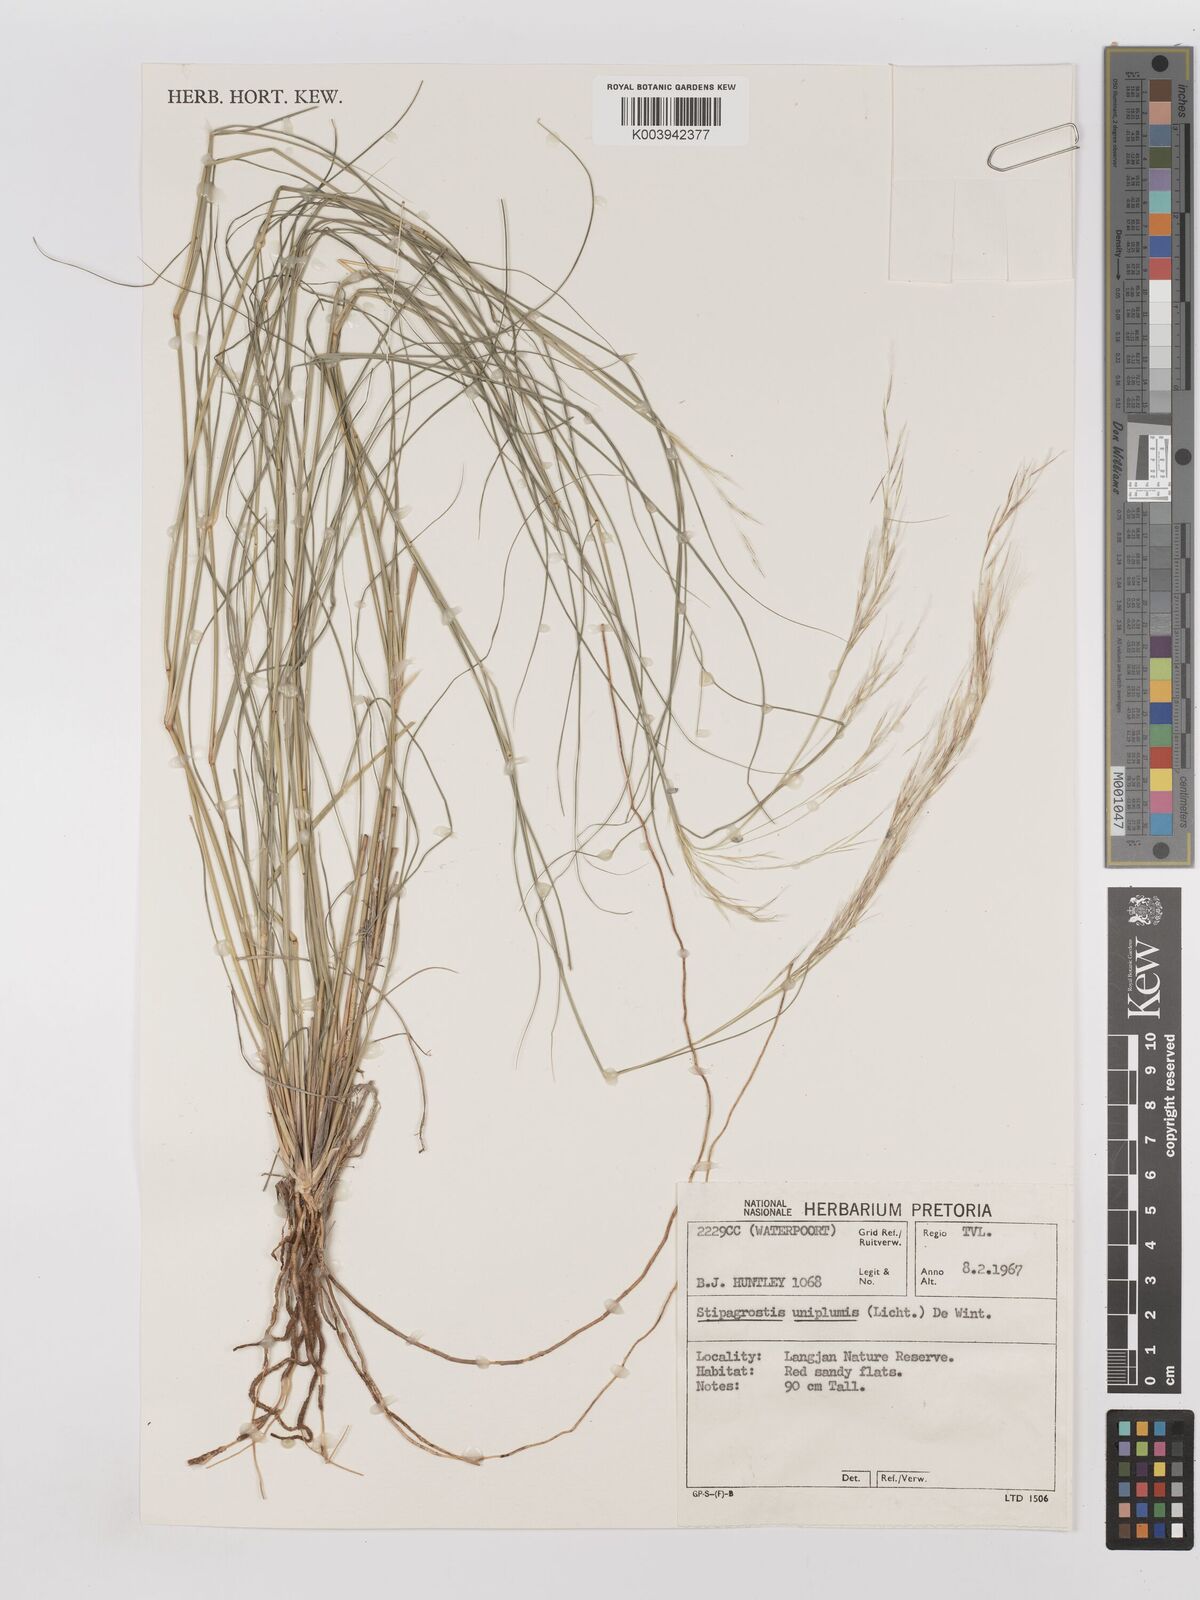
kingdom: Plantae
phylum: Tracheophyta
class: Liliopsida
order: Poales
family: Poaceae
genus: Stipagrostis
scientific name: Stipagrostis uniplumis
